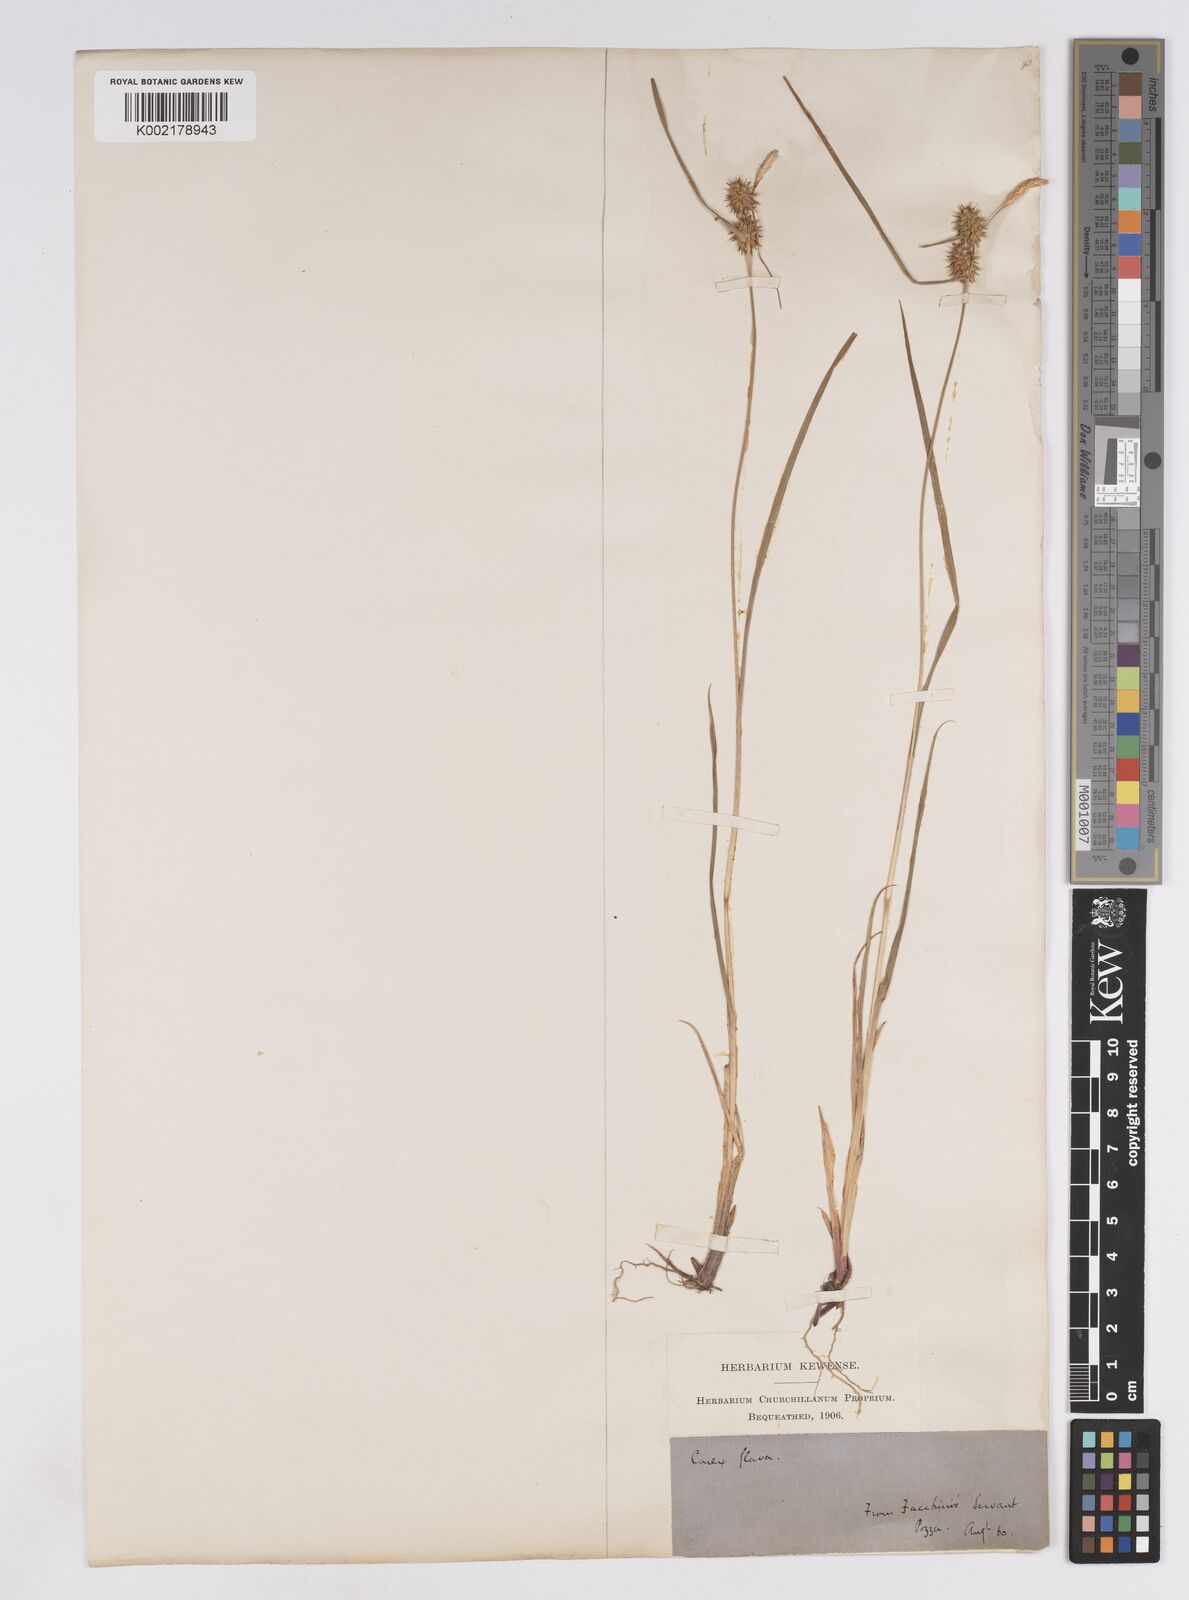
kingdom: Plantae
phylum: Tracheophyta
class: Liliopsida
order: Poales
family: Cyperaceae
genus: Carex
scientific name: Carex lepidocarpa
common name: Long-stalked yellow-sedge
